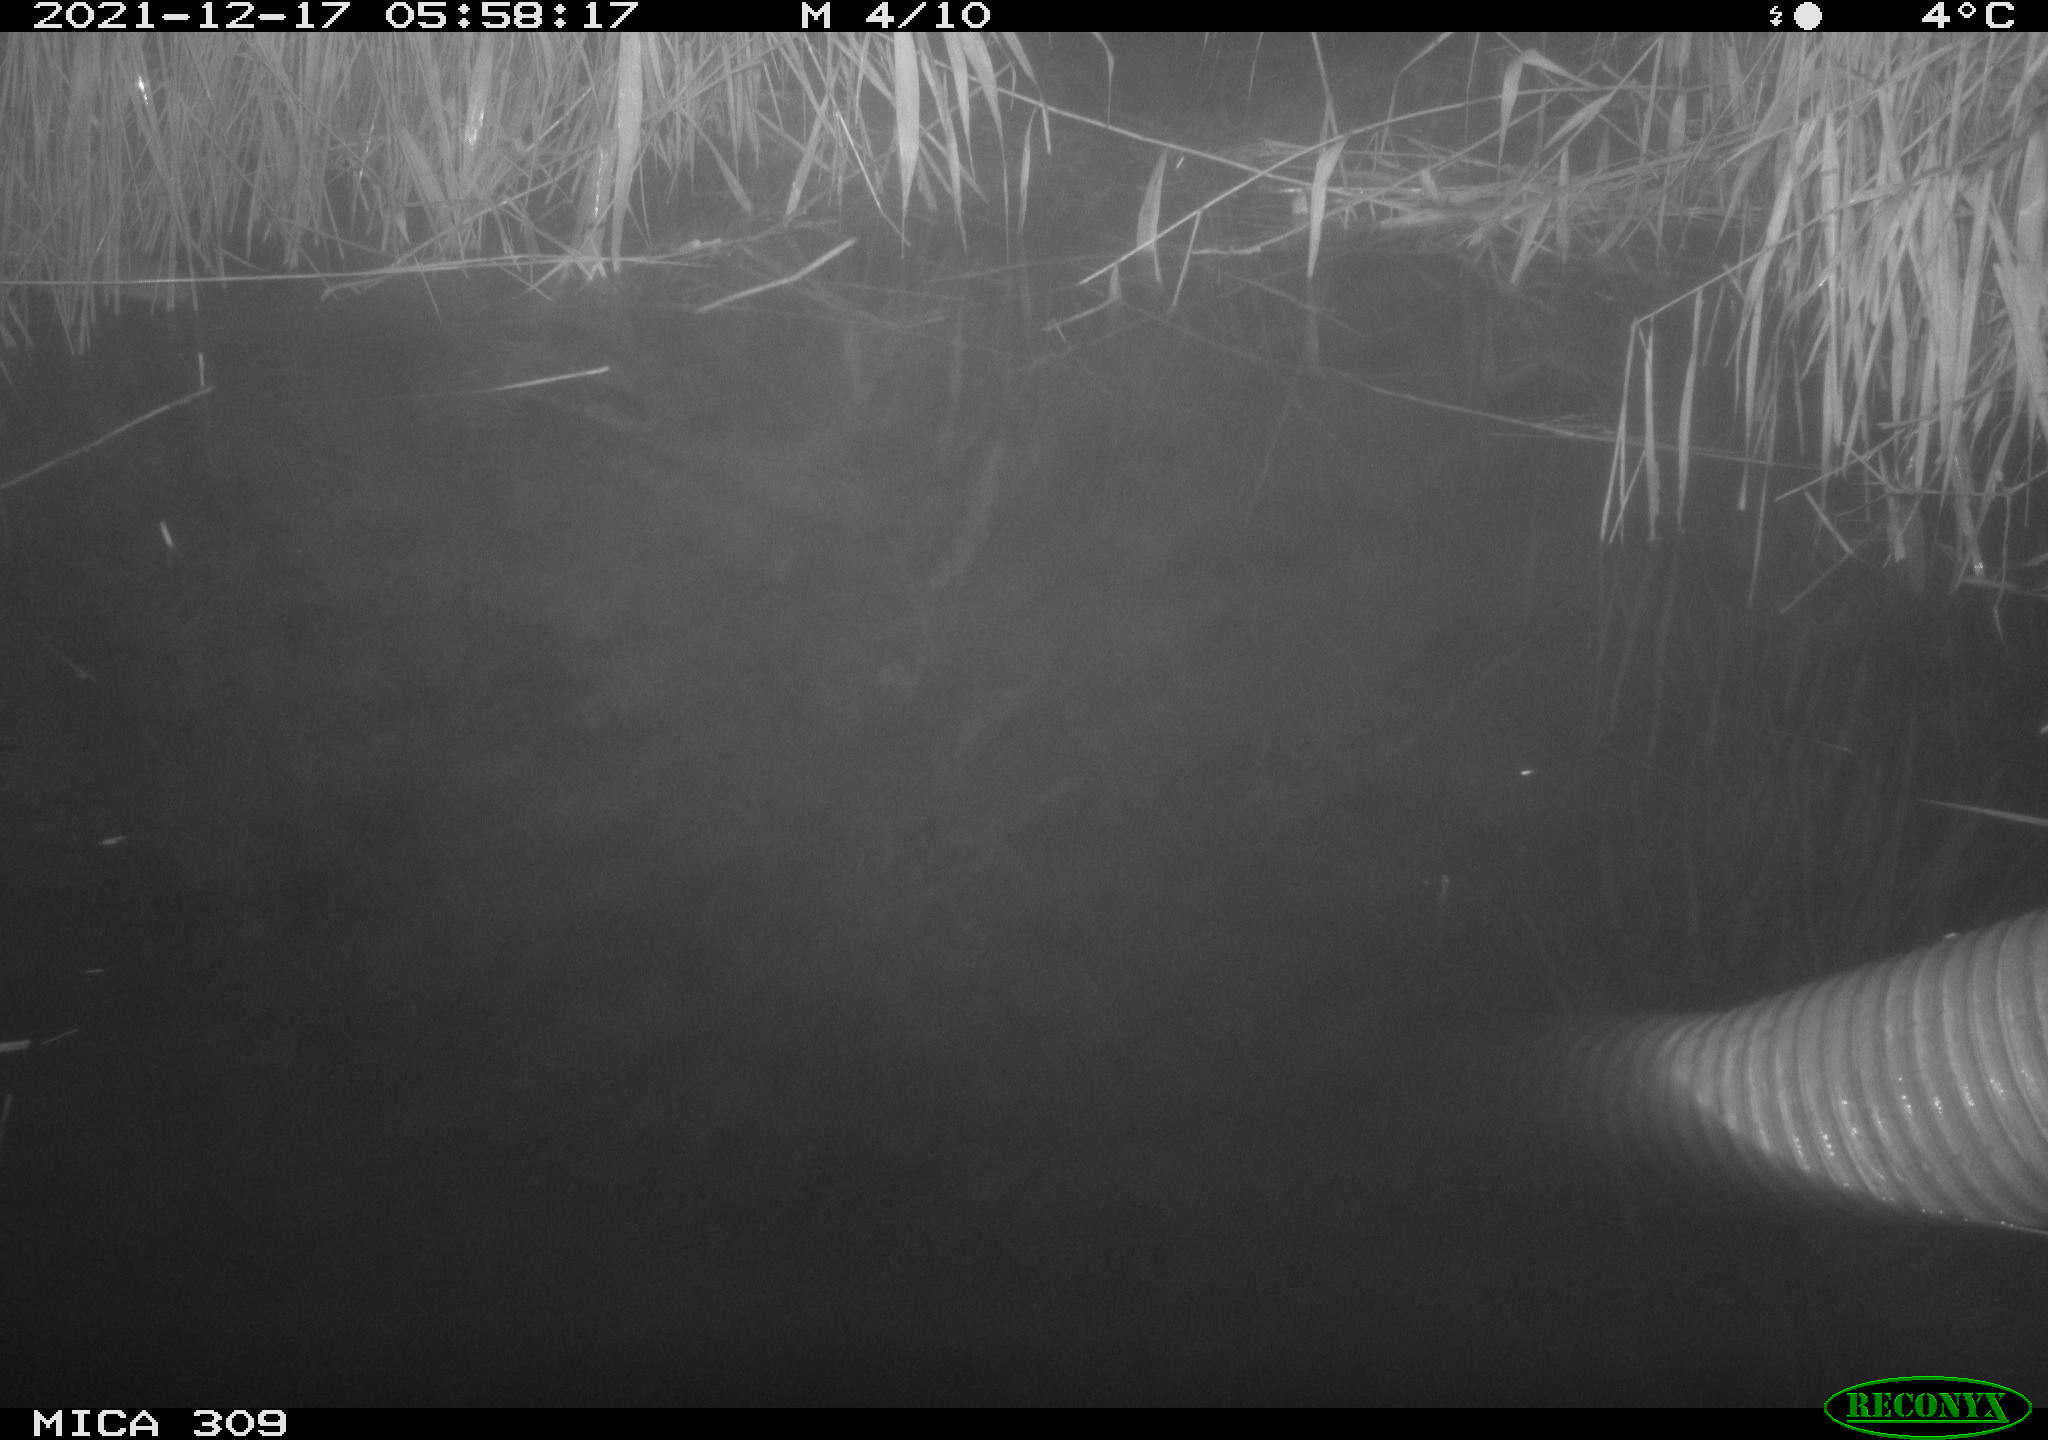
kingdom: Animalia
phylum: Chordata
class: Mammalia
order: Rodentia
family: Muridae
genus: Rattus
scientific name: Rattus norvegicus
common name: Brown rat
